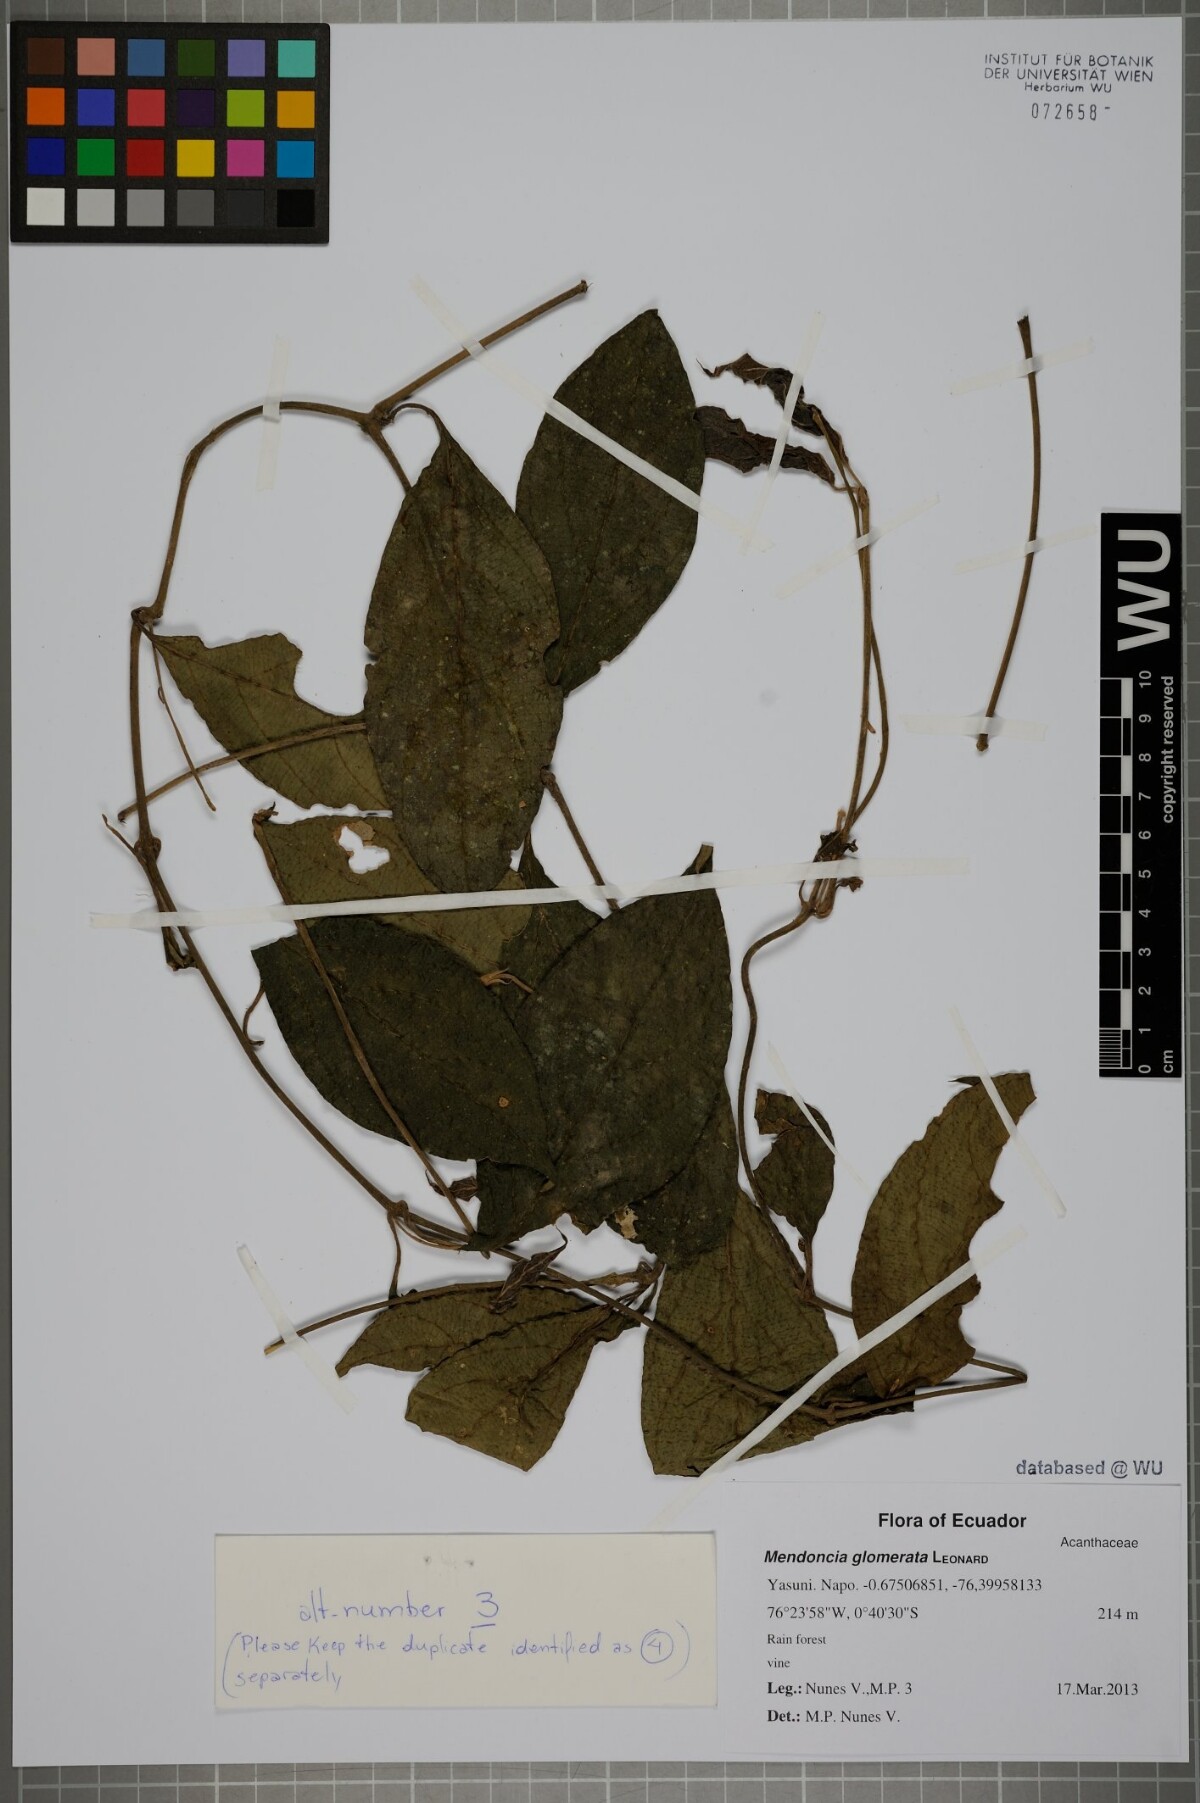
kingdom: Plantae
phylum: Tracheophyta
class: Magnoliopsida
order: Lamiales
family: Acanthaceae
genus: Mendoncia
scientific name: Mendoncia glomerata
